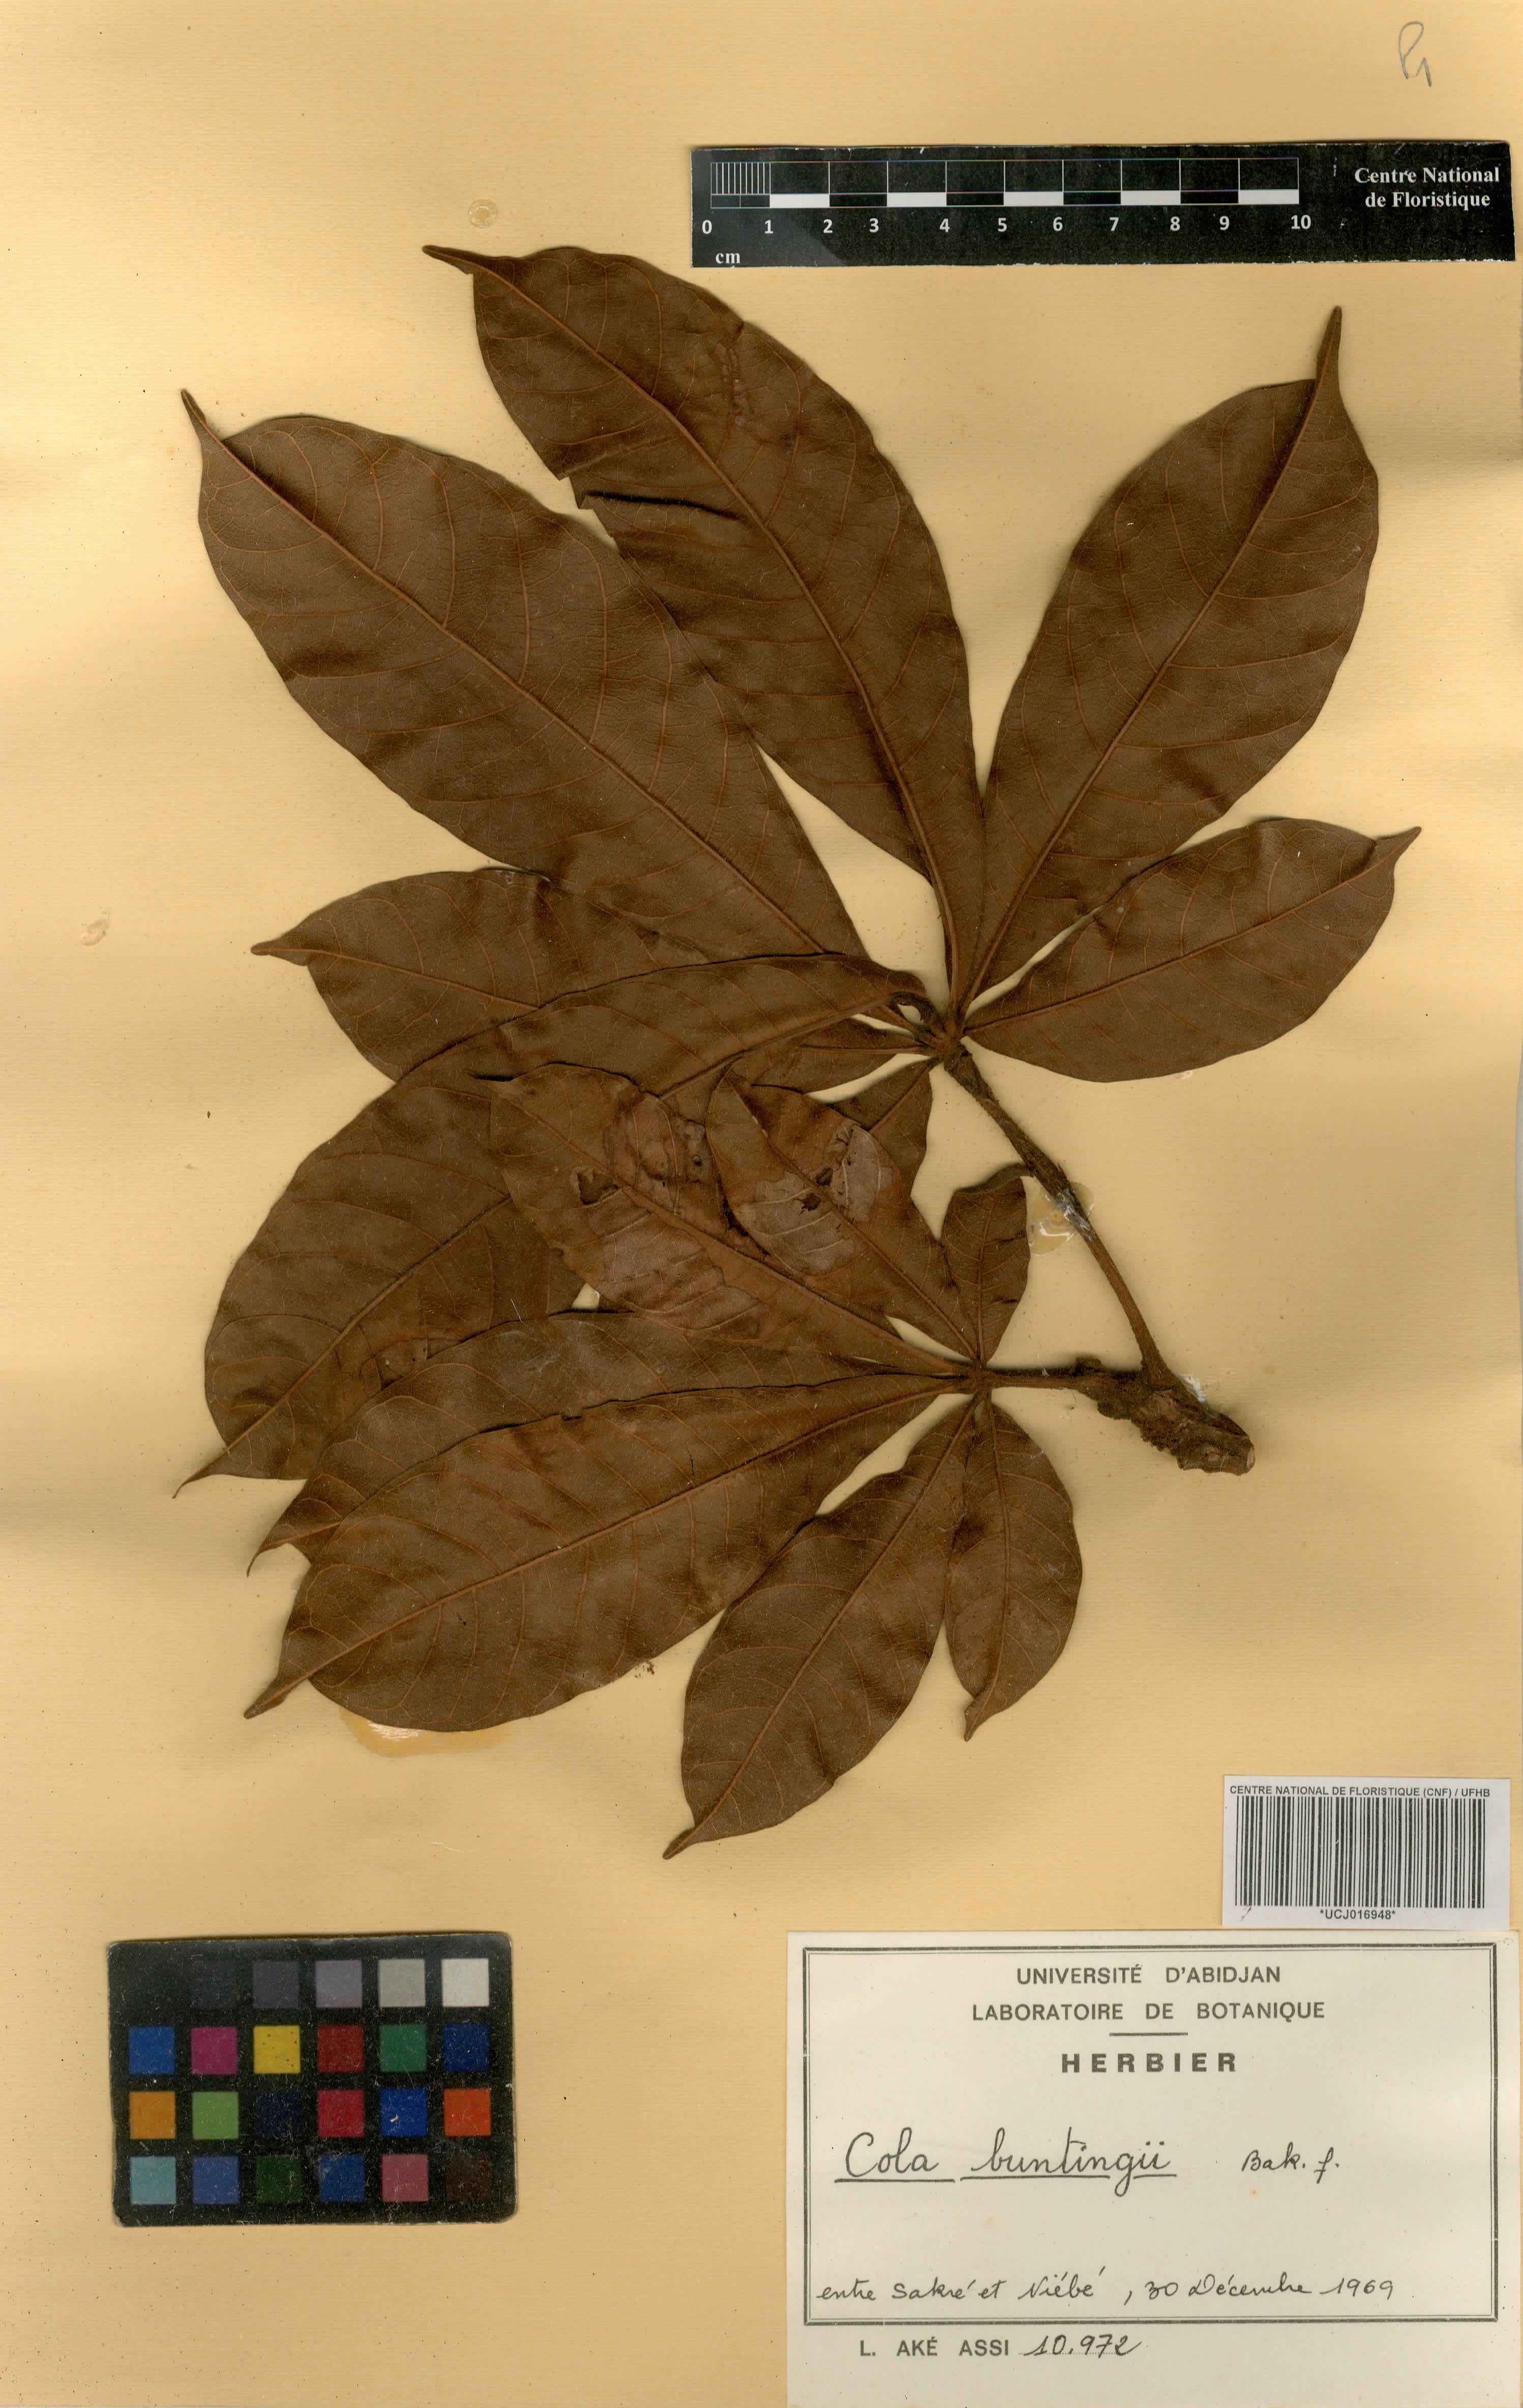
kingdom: Plantae
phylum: Tracheophyta
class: Magnoliopsida
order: Malvales
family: Malvaceae
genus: Cola
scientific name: Cola buntingii
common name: Bunting's cola
